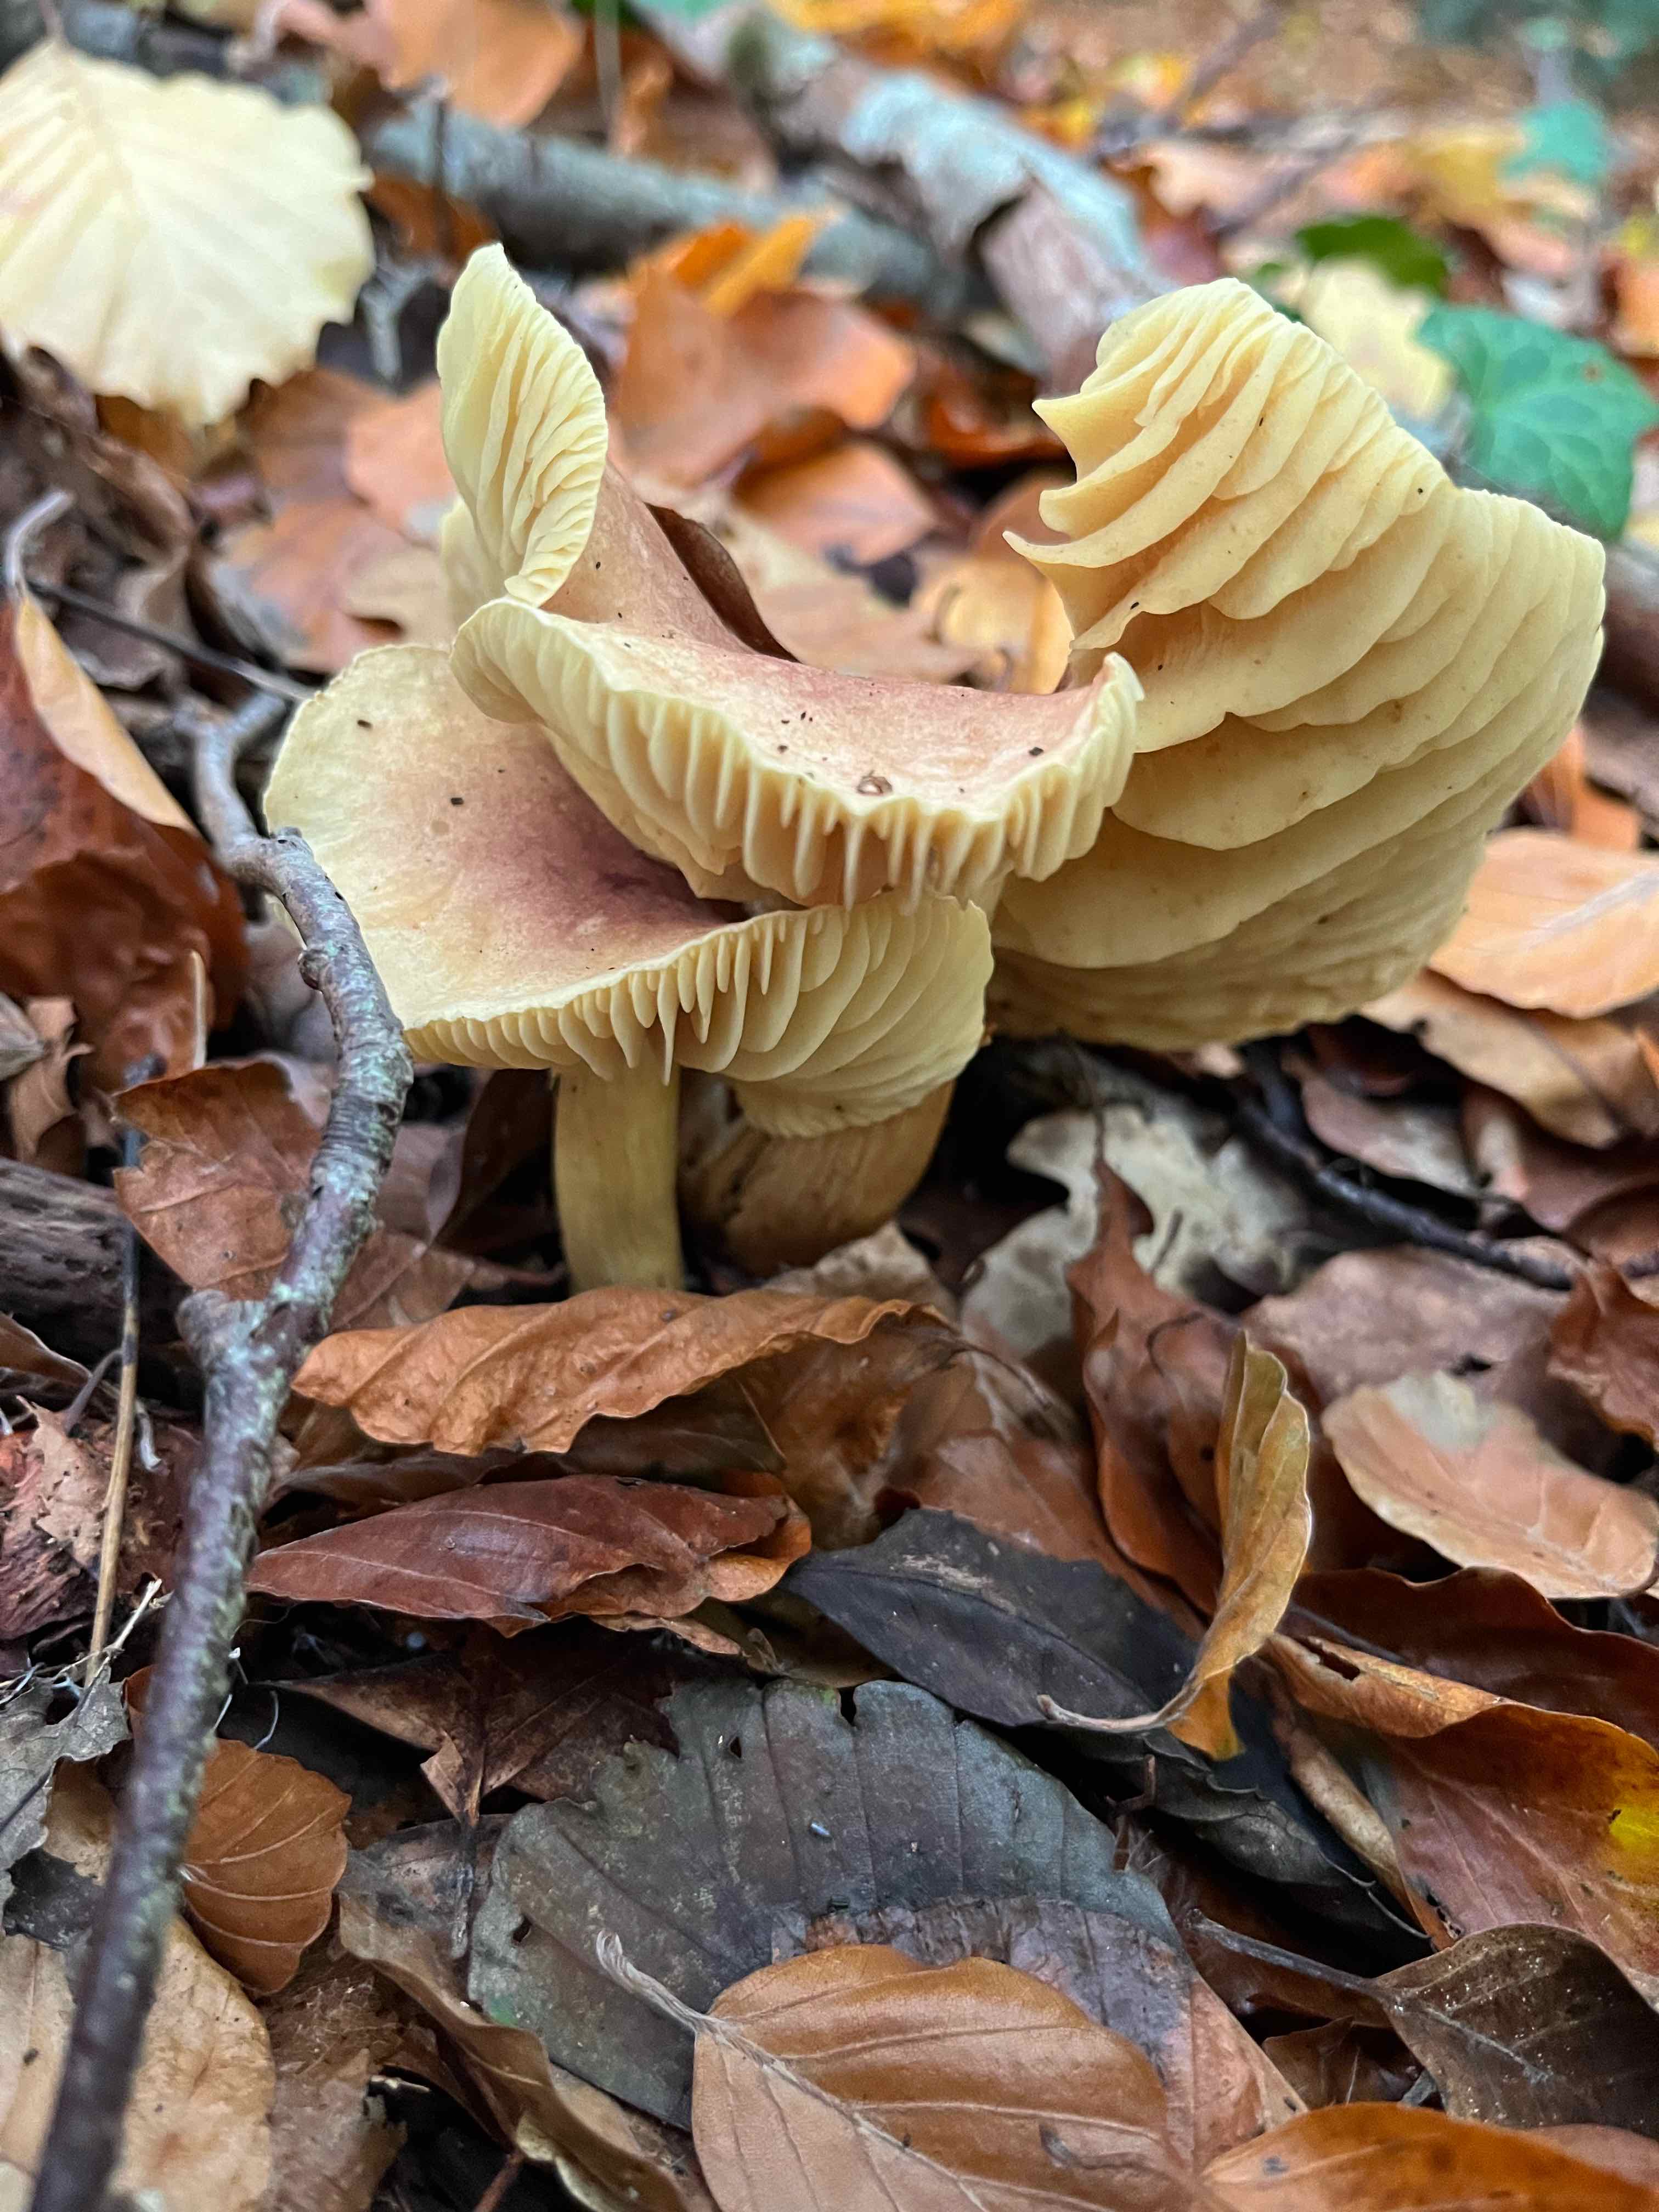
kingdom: Fungi
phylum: Basidiomycota
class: Agaricomycetes
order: Agaricales
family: Tricholomataceae
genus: Tricholoma
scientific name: Tricholoma sulphureum
